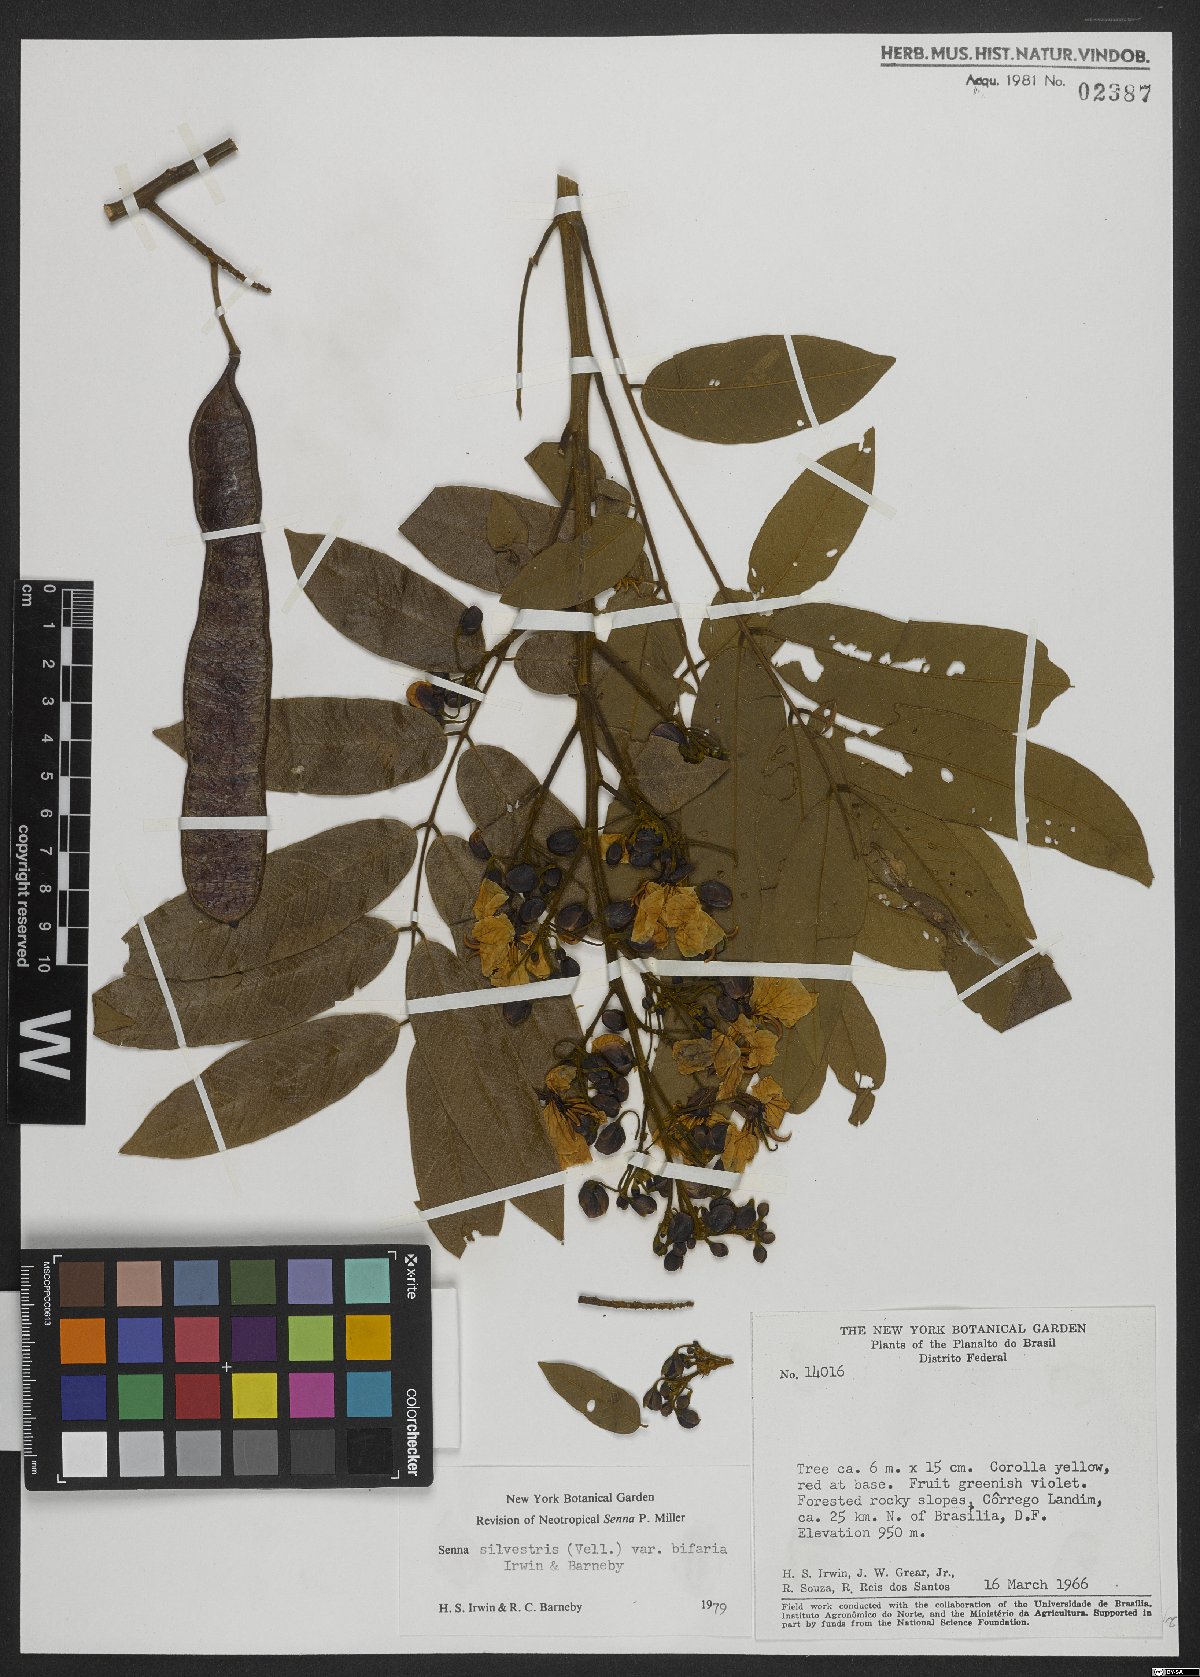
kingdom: Plantae
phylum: Tracheophyta
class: Magnoliopsida
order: Fabales
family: Fabaceae
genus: Senna
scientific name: Senna silvestris
